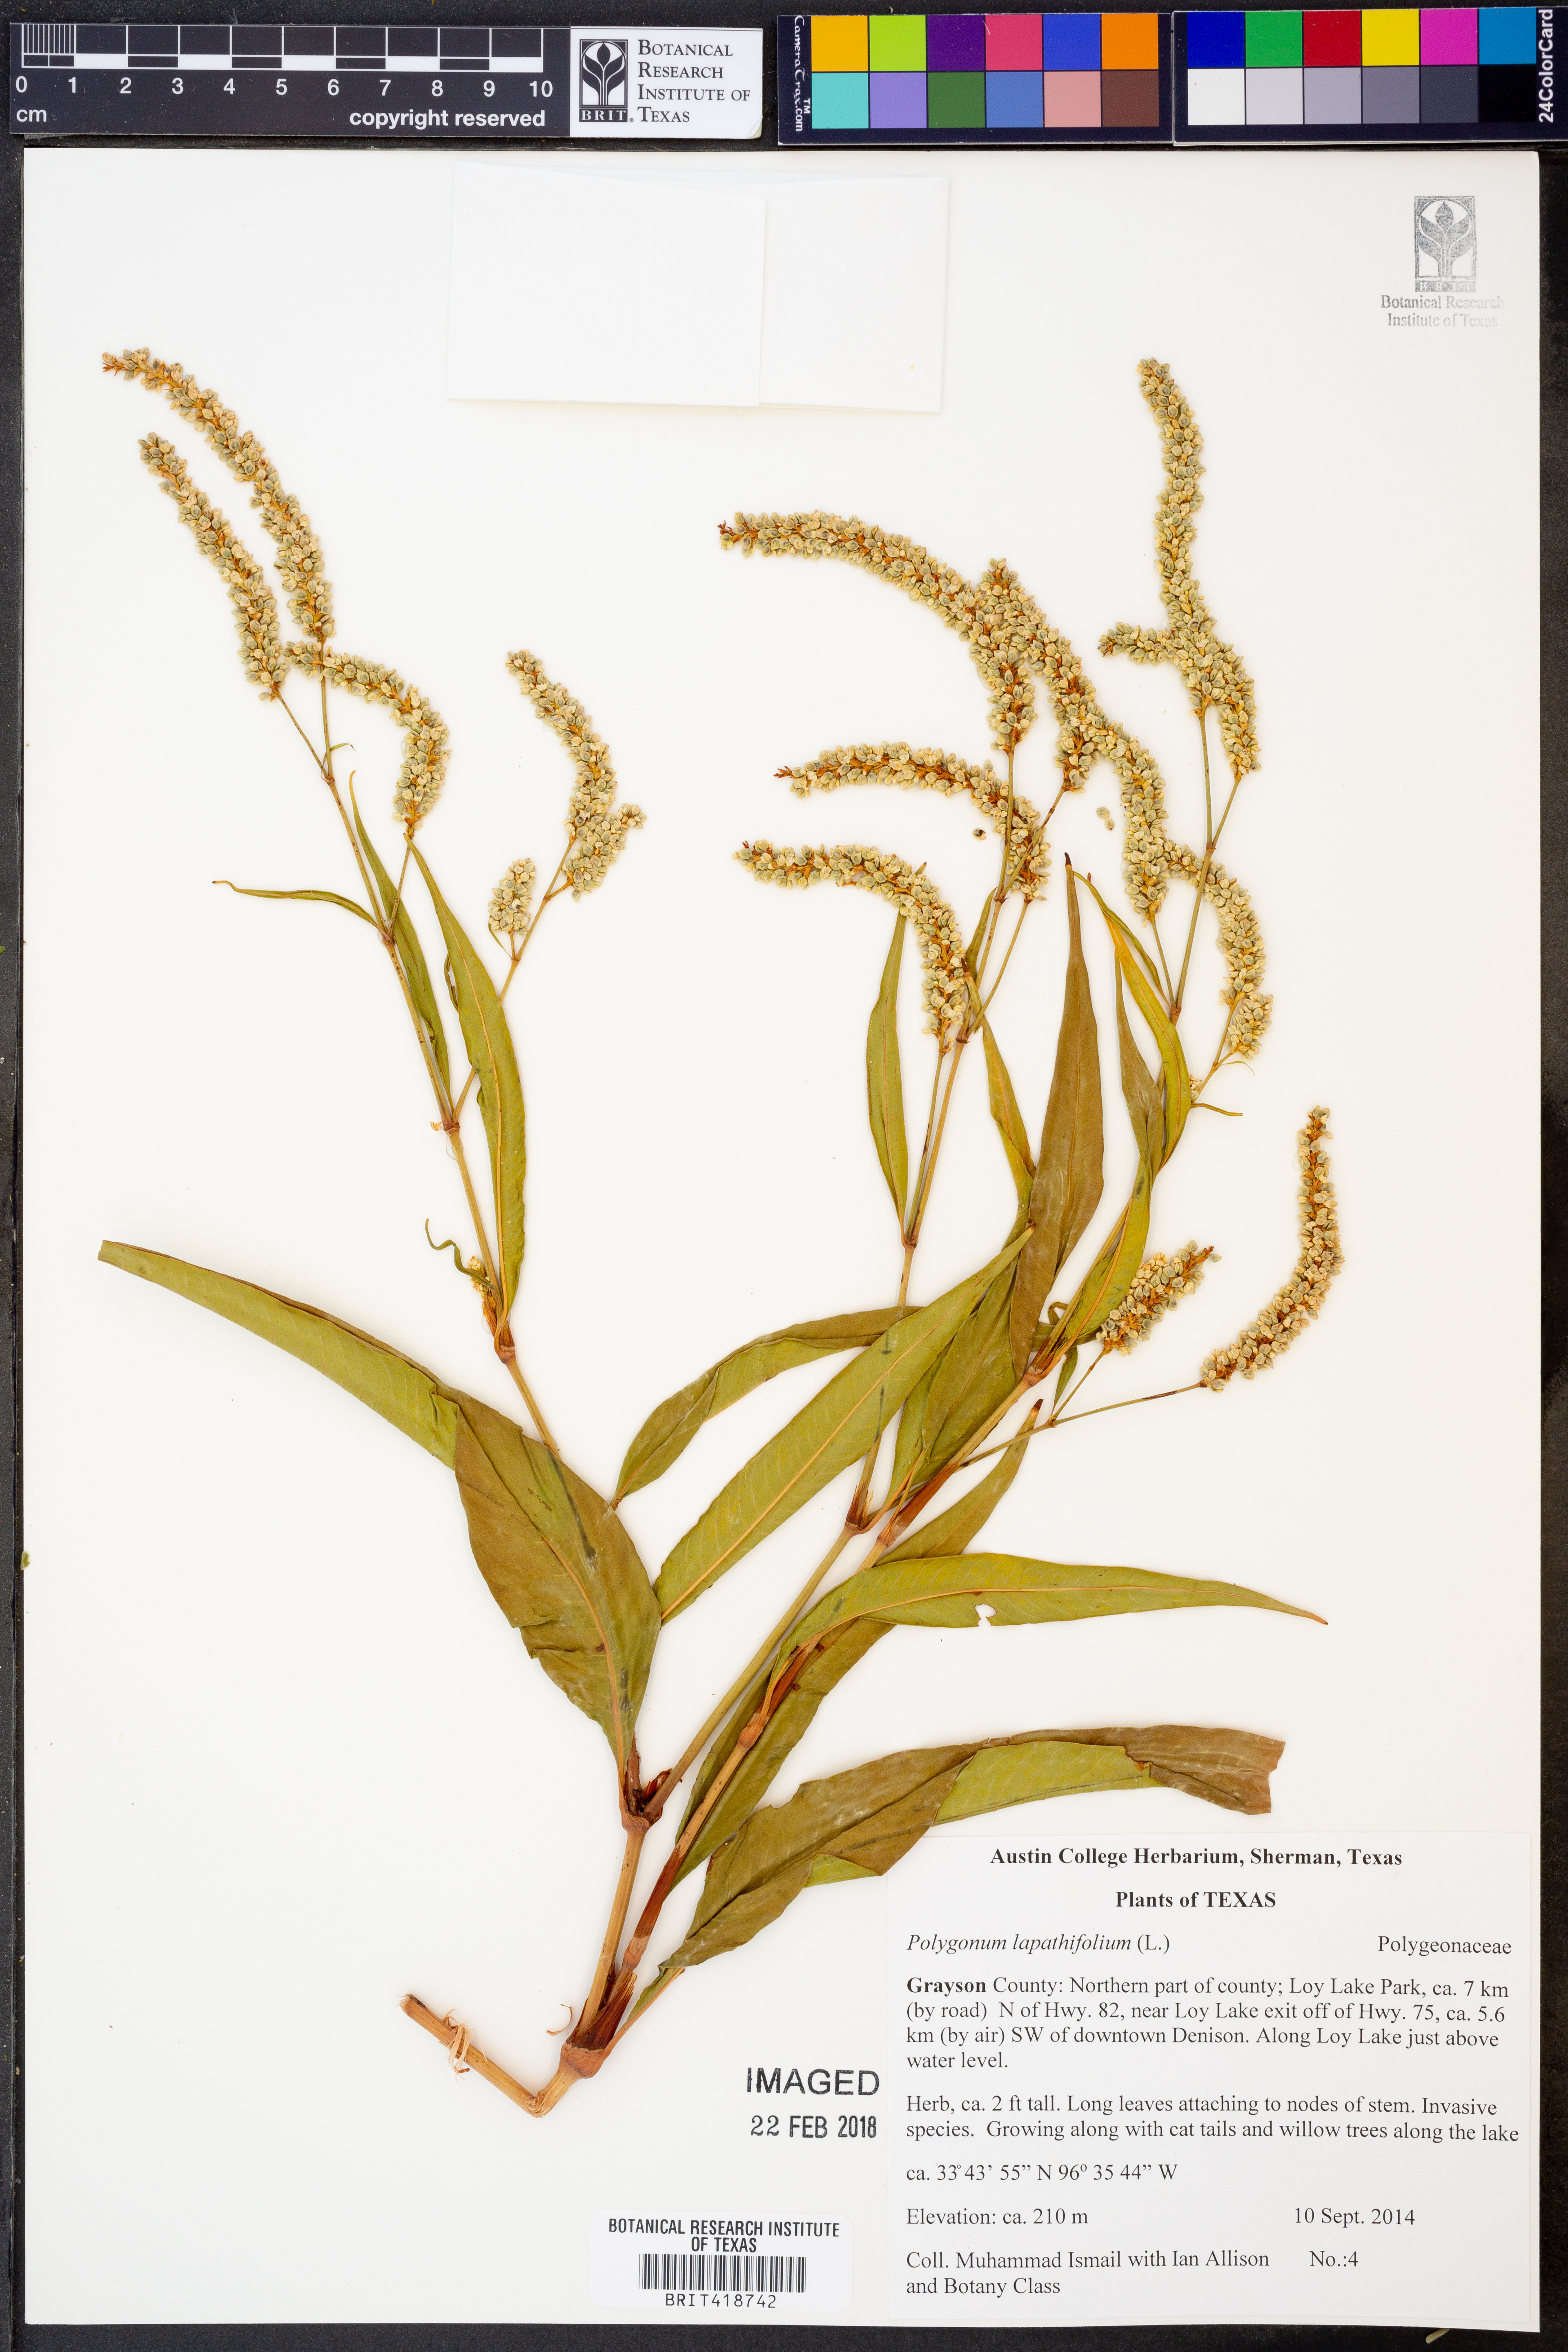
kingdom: Plantae
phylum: Tracheophyta
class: Magnoliopsida
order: Caryophyllales
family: Polygonaceae
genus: Persicaria
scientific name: Persicaria lapathifolia
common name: Curlytop knotweed
